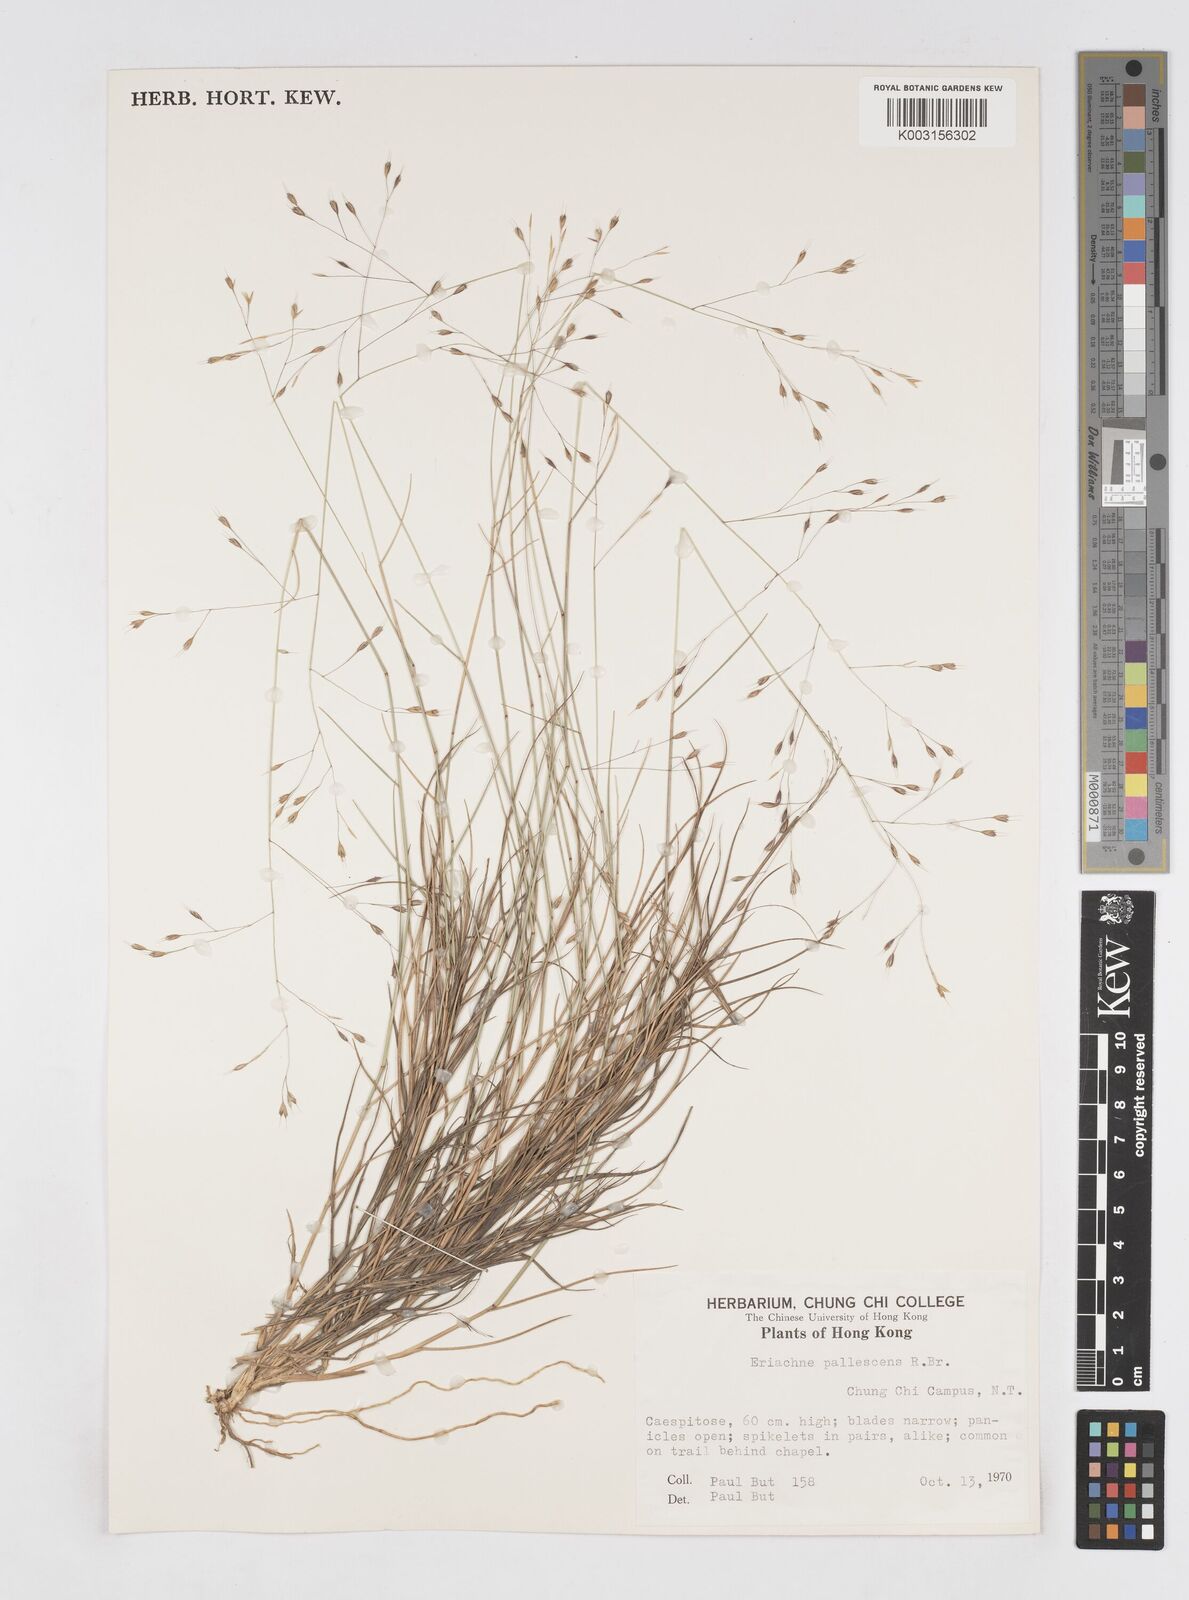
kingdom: Plantae
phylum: Tracheophyta
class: Liliopsida
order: Poales
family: Poaceae
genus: Eriachne
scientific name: Eriachne pallescens
